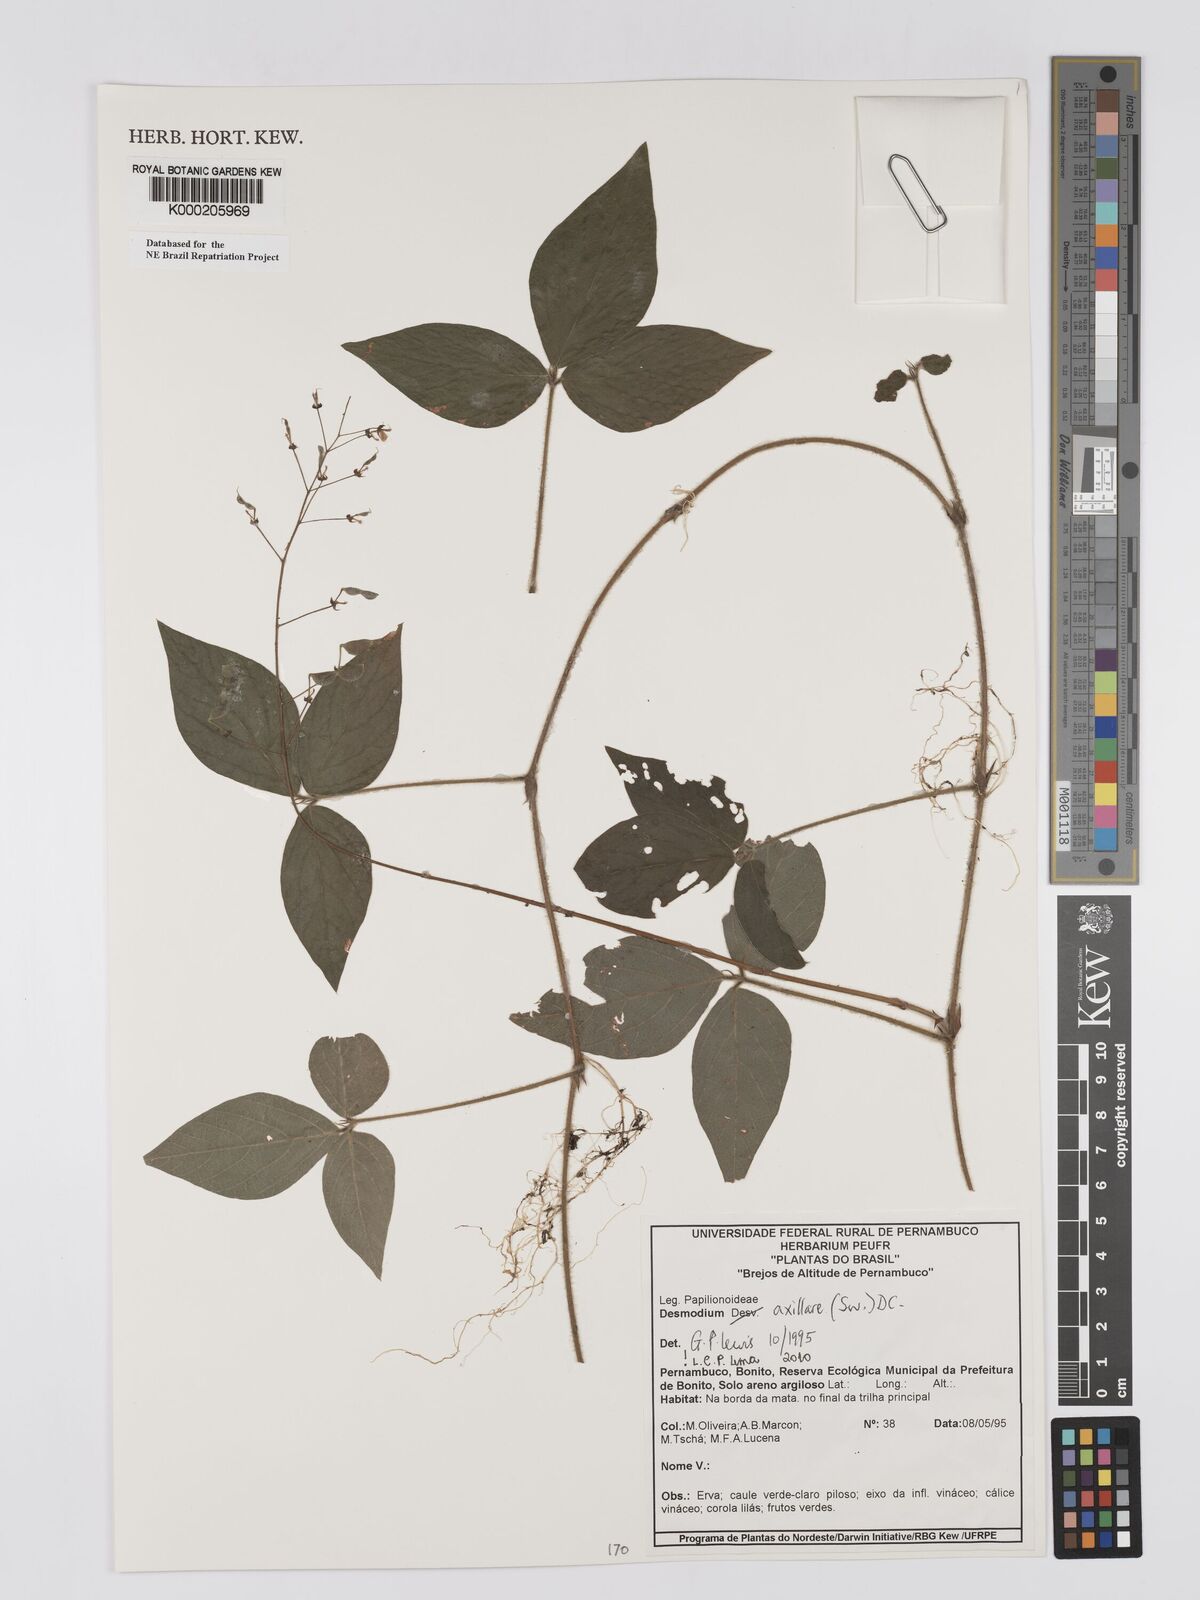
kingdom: Plantae
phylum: Tracheophyta
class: Magnoliopsida
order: Fabales
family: Fabaceae
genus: Desmodium
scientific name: Desmodium axillare
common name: Wire with
